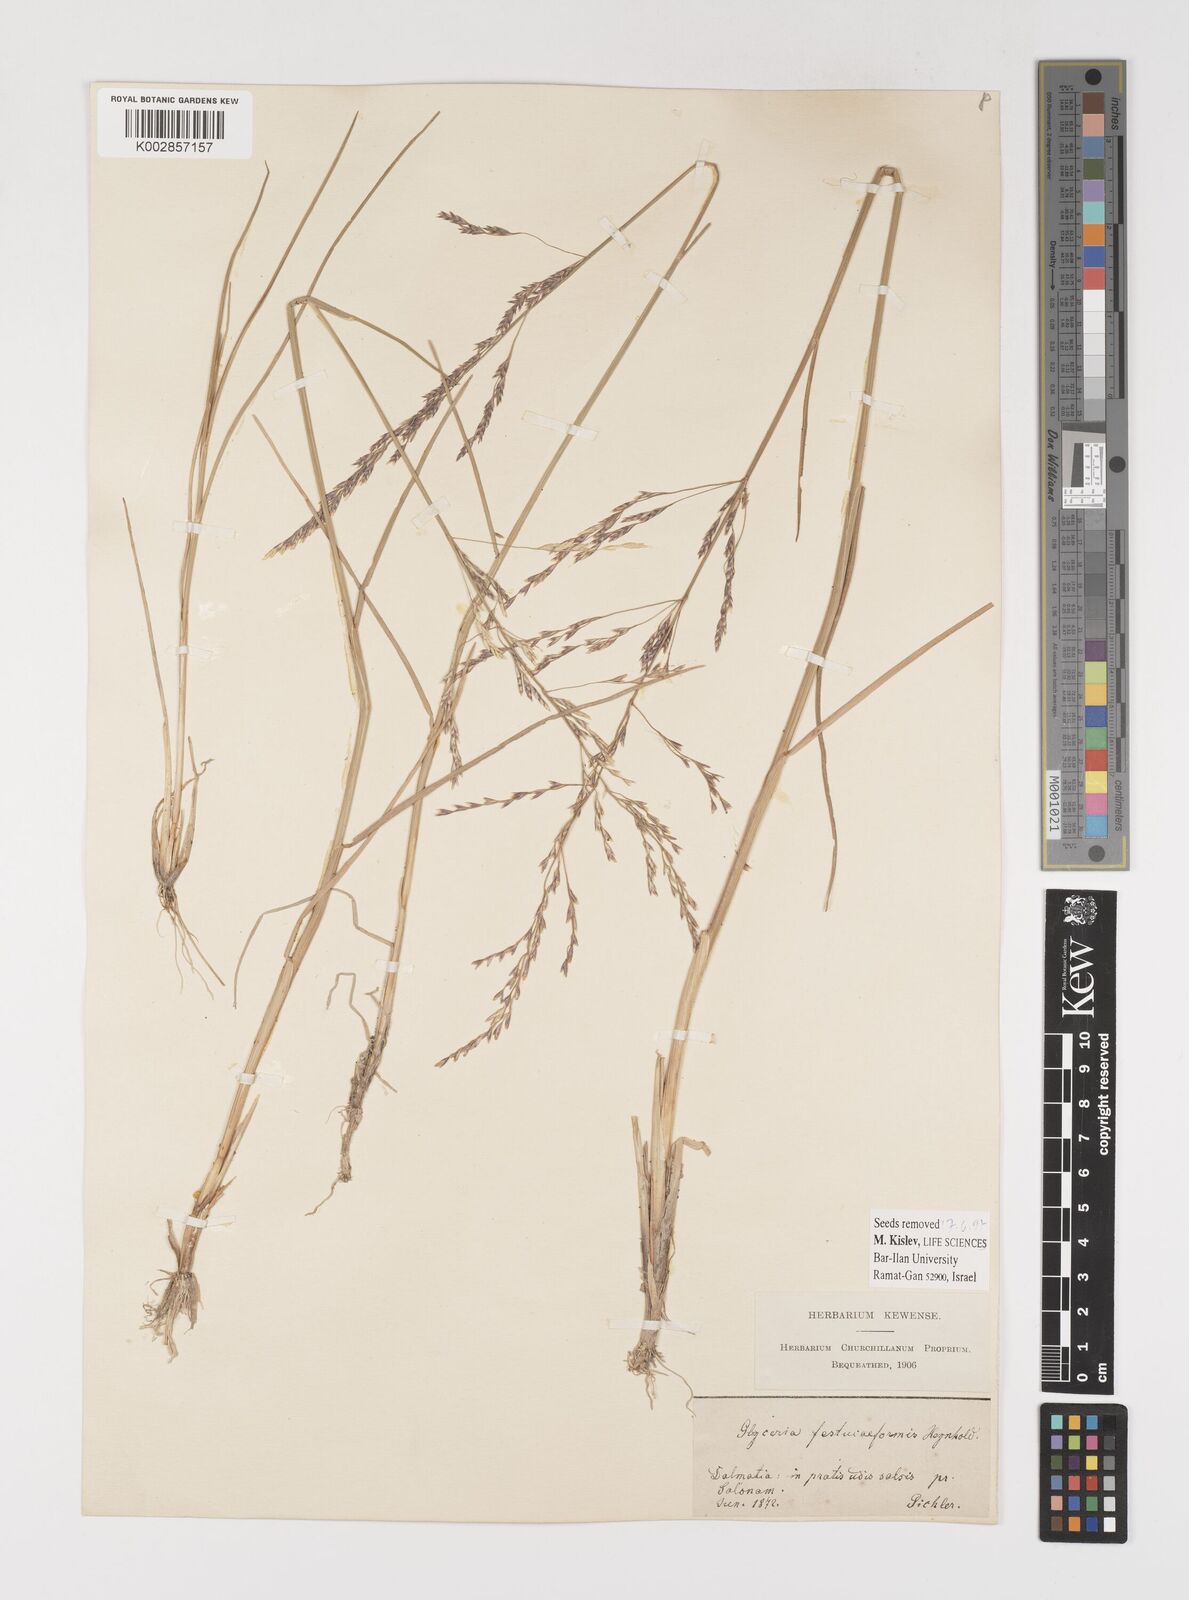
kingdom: Plantae
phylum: Tracheophyta
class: Liliopsida
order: Poales
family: Poaceae
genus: Puccinellia
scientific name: Puccinellia festuciformis
